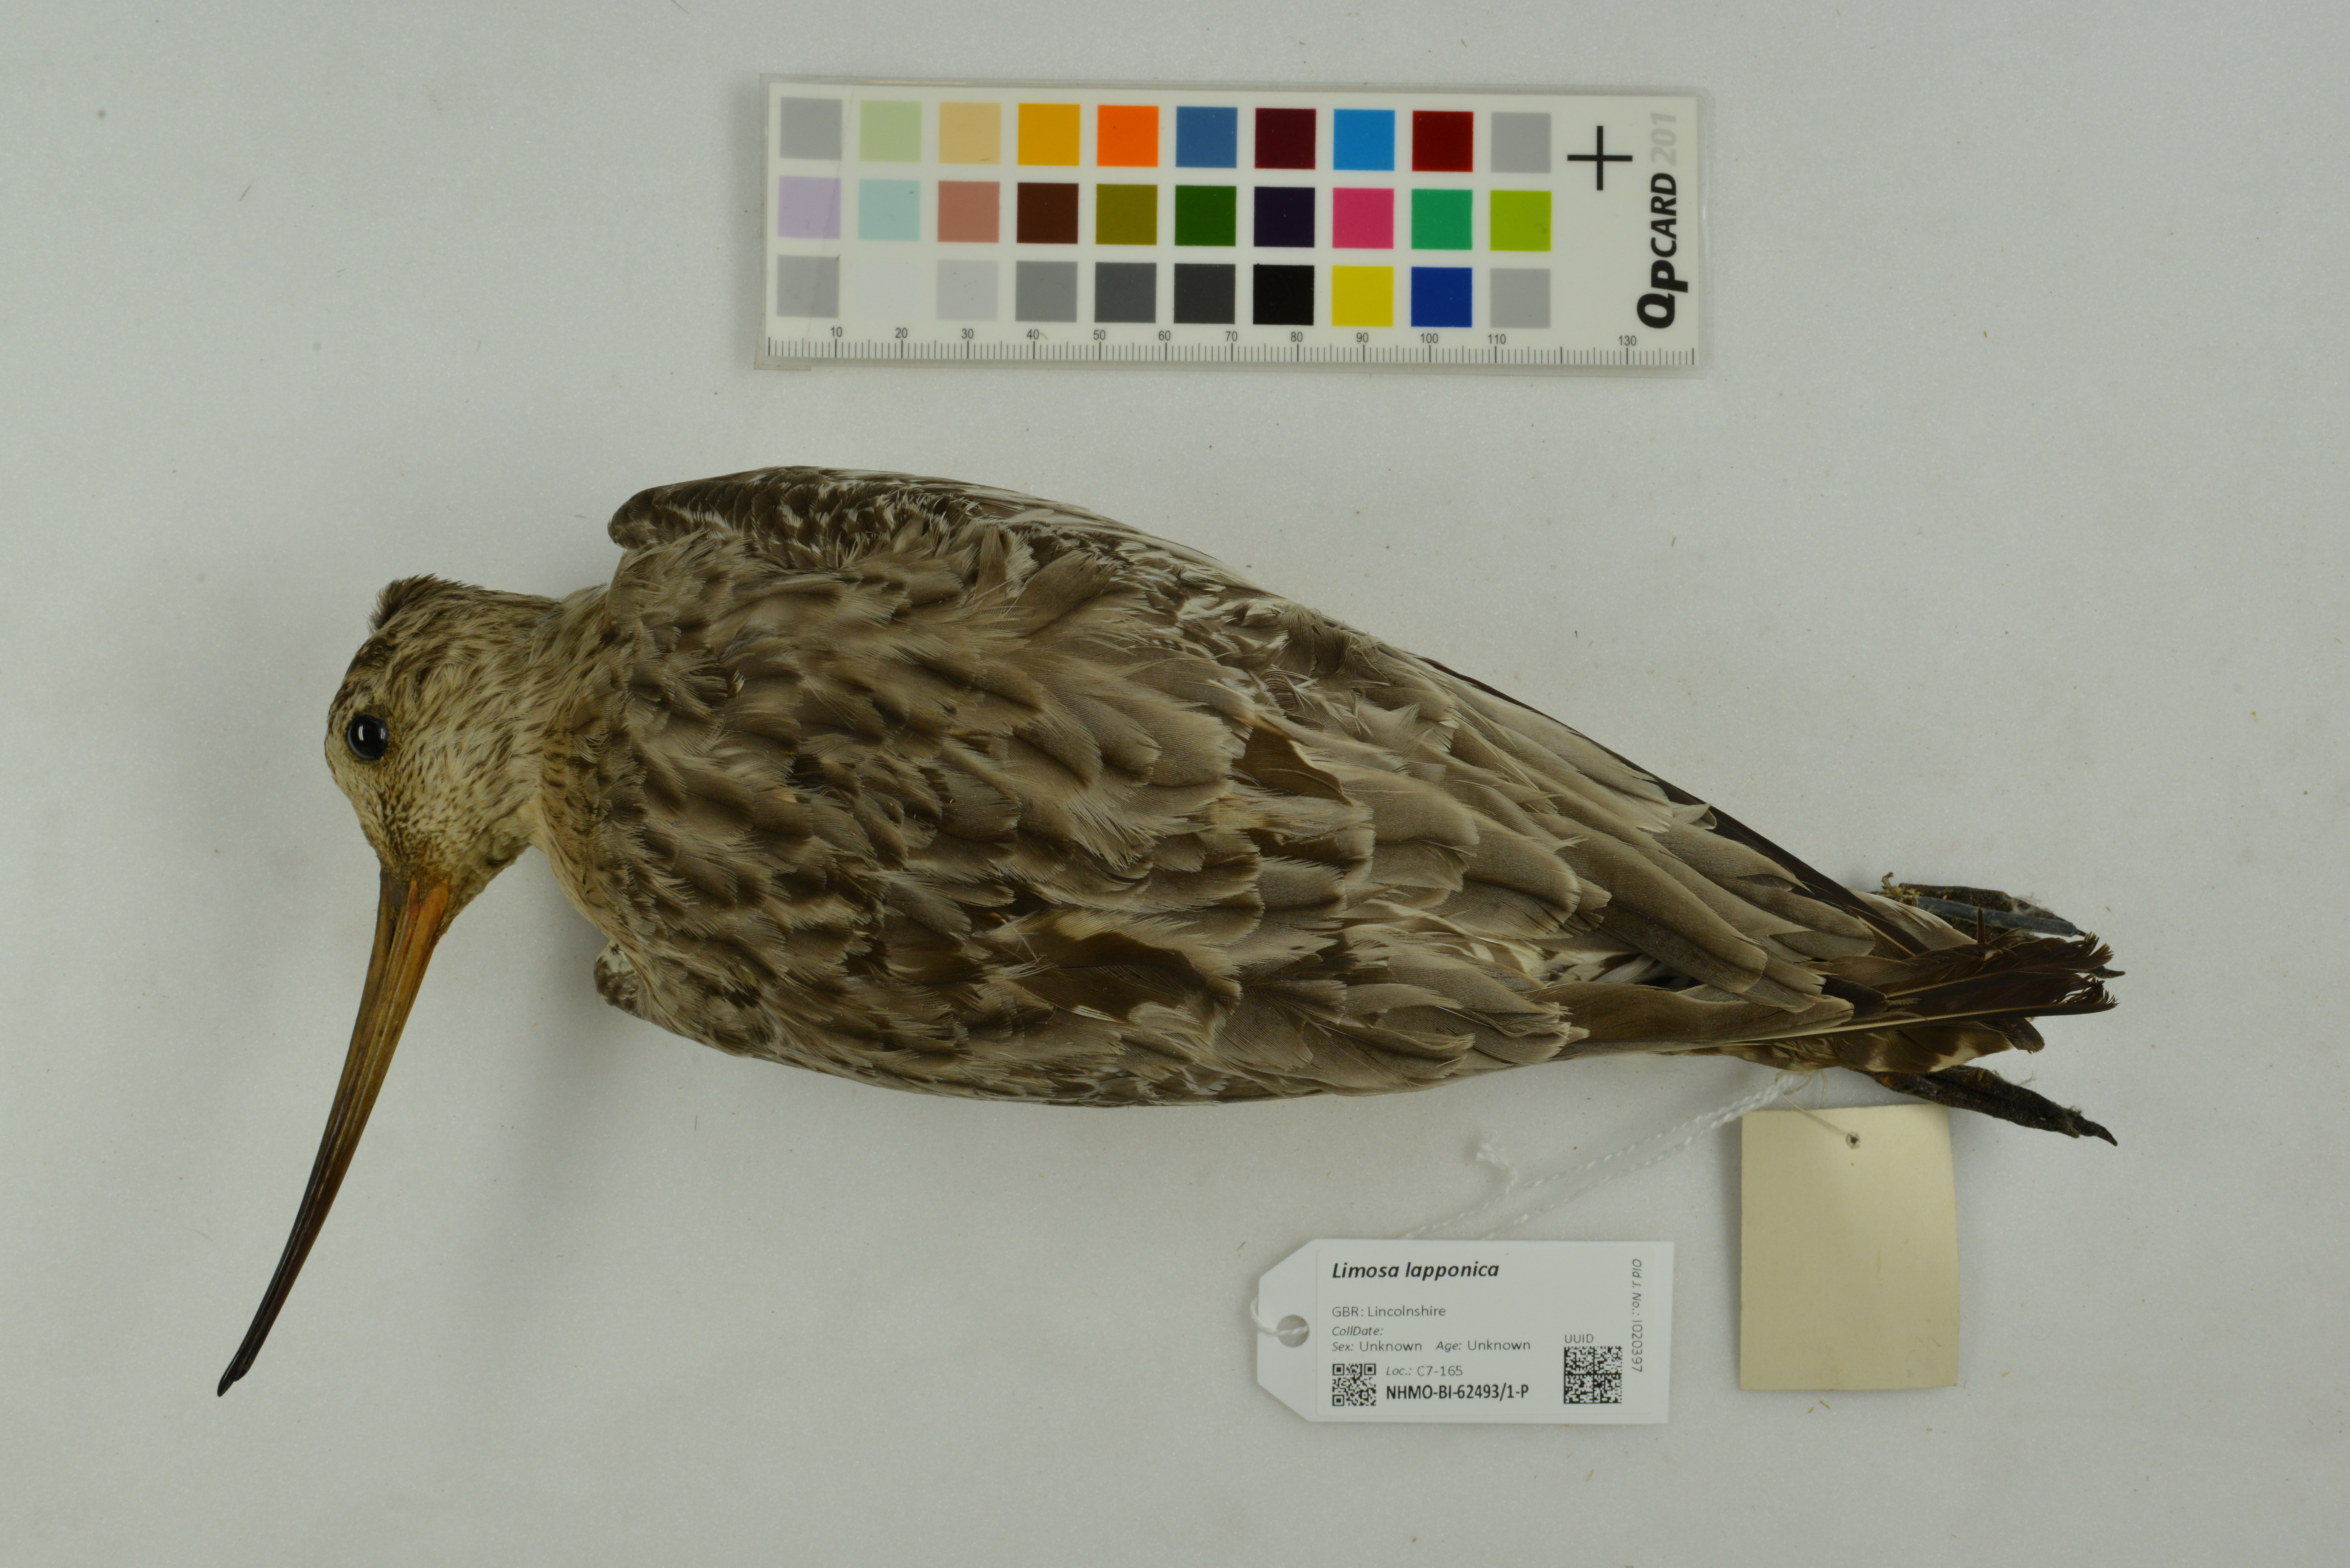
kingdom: Animalia
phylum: Chordata
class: Aves
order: Charadriiformes
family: Scolopacidae
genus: Limosa
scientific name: Limosa lapponica
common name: Bar-tailed godwit
